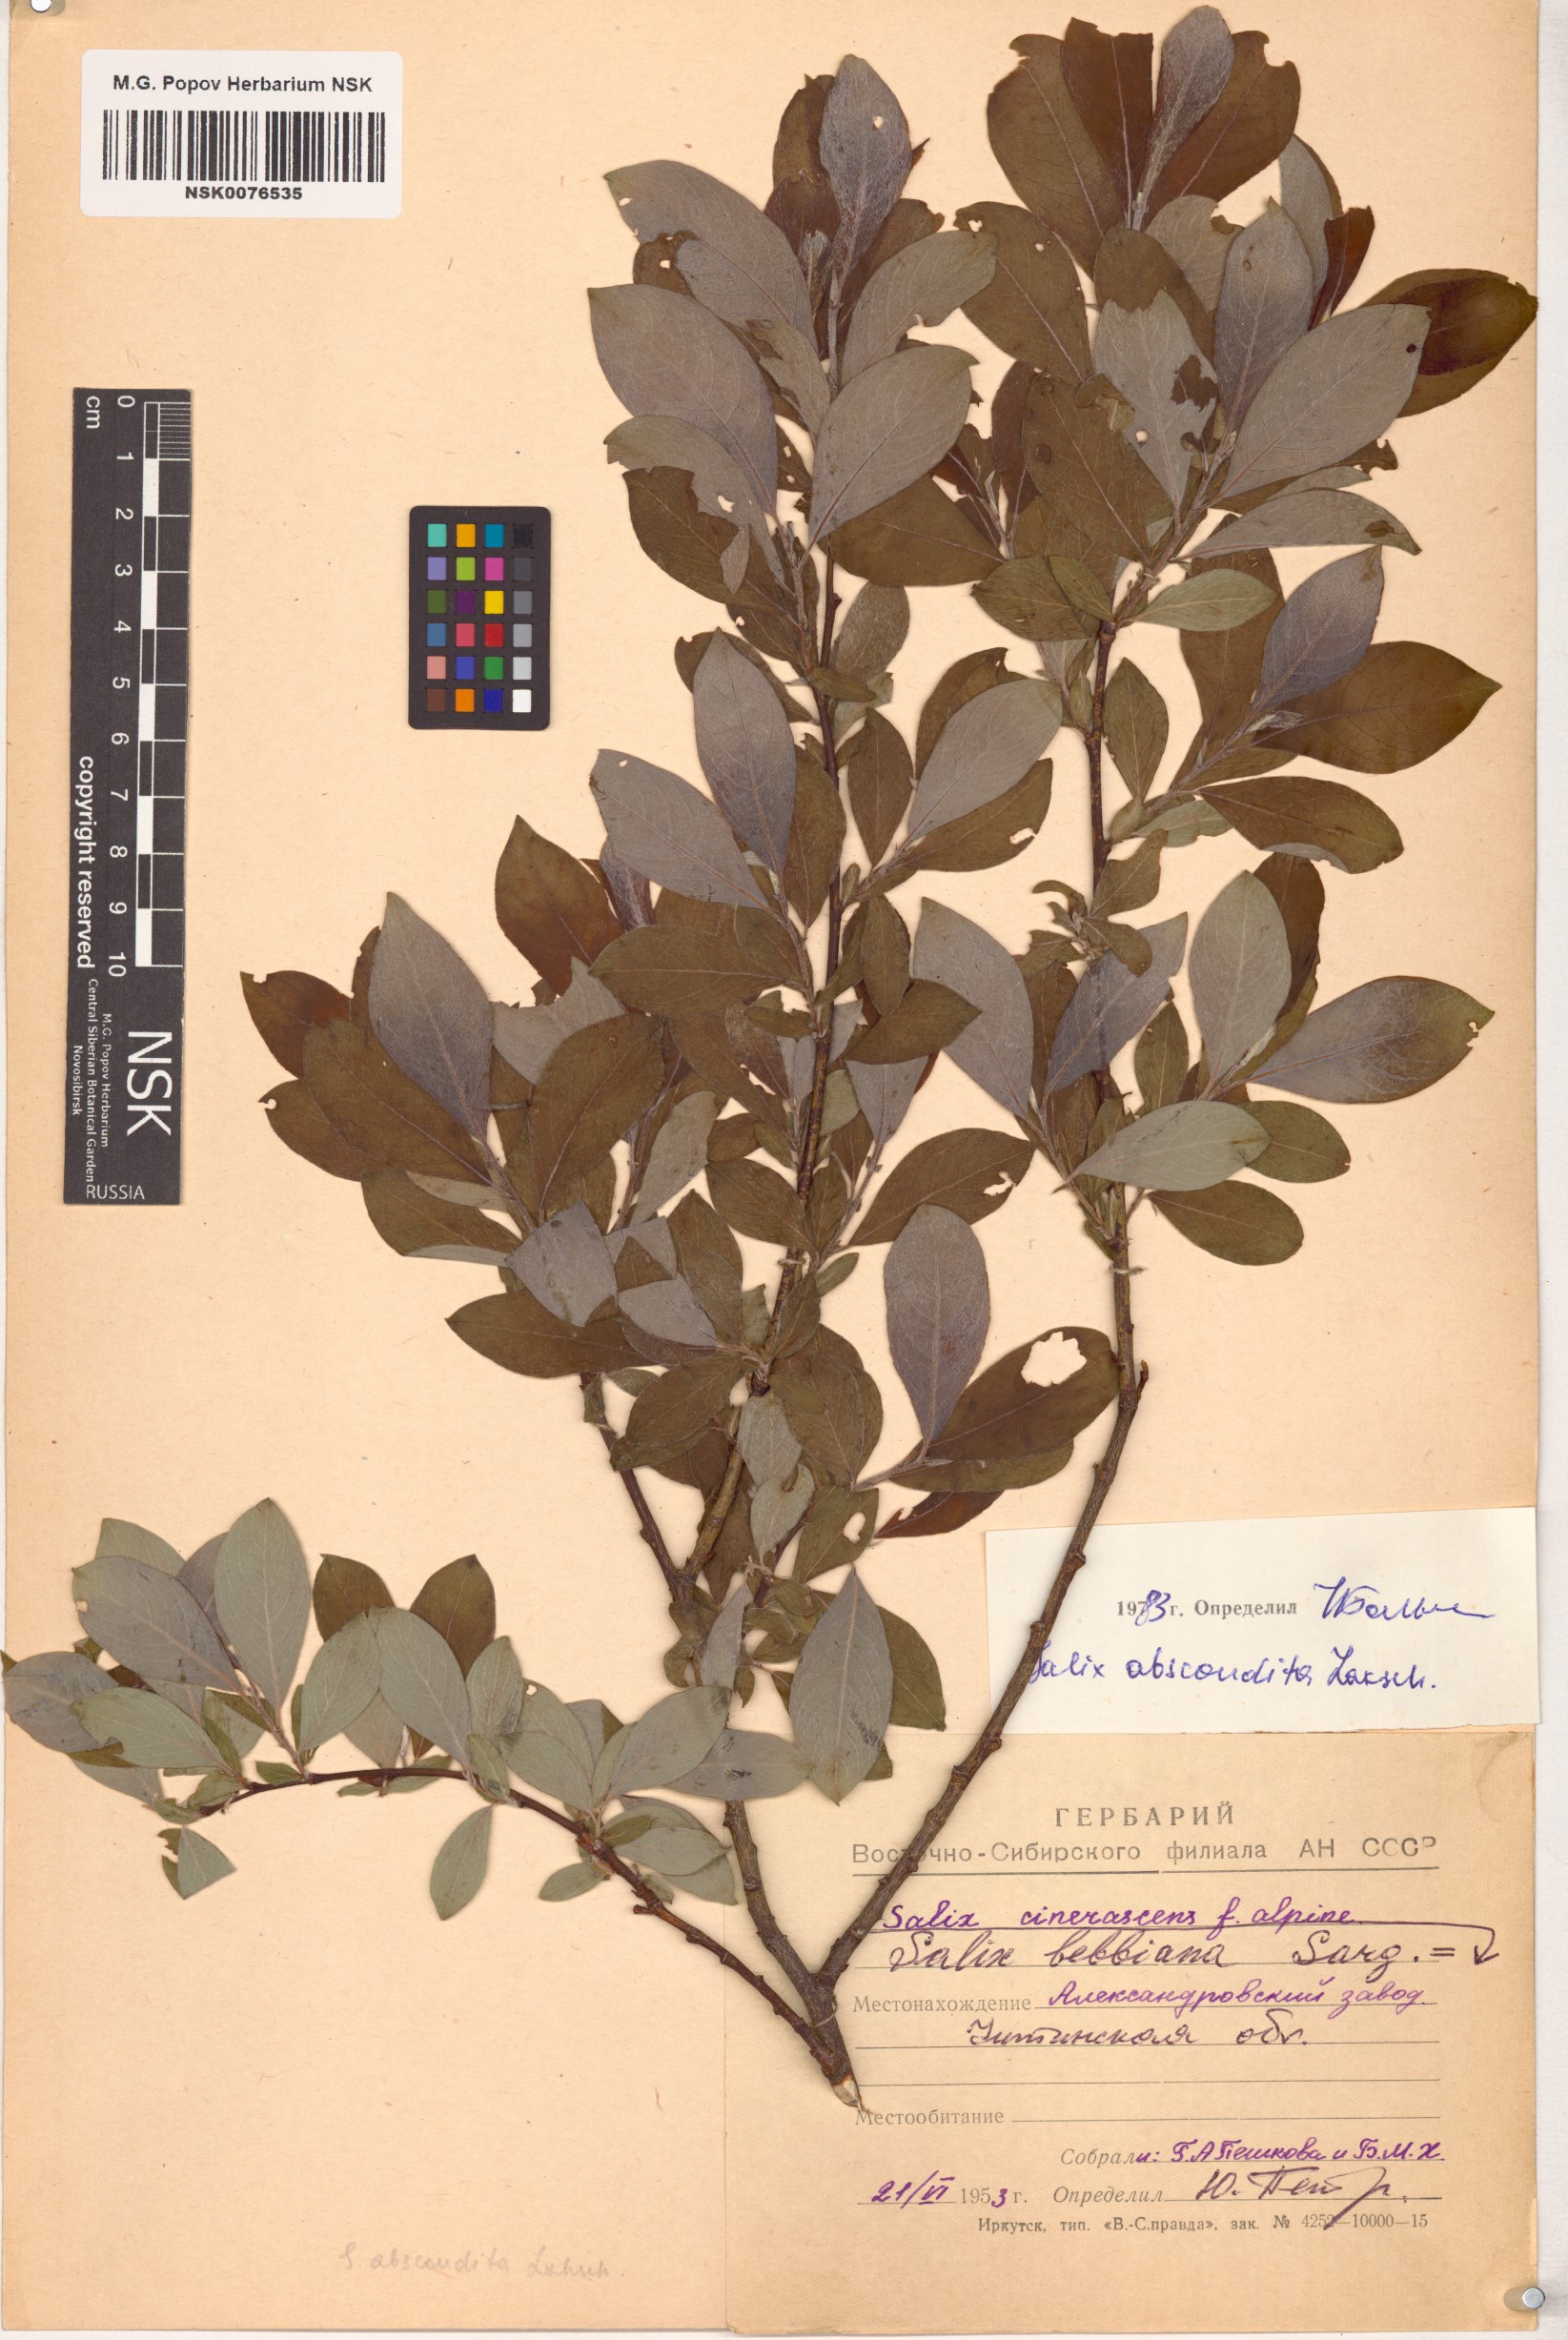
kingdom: Plantae
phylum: Tracheophyta
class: Magnoliopsida
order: Malpighiales
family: Salicaceae
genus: Salix
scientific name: Salix abscondita
